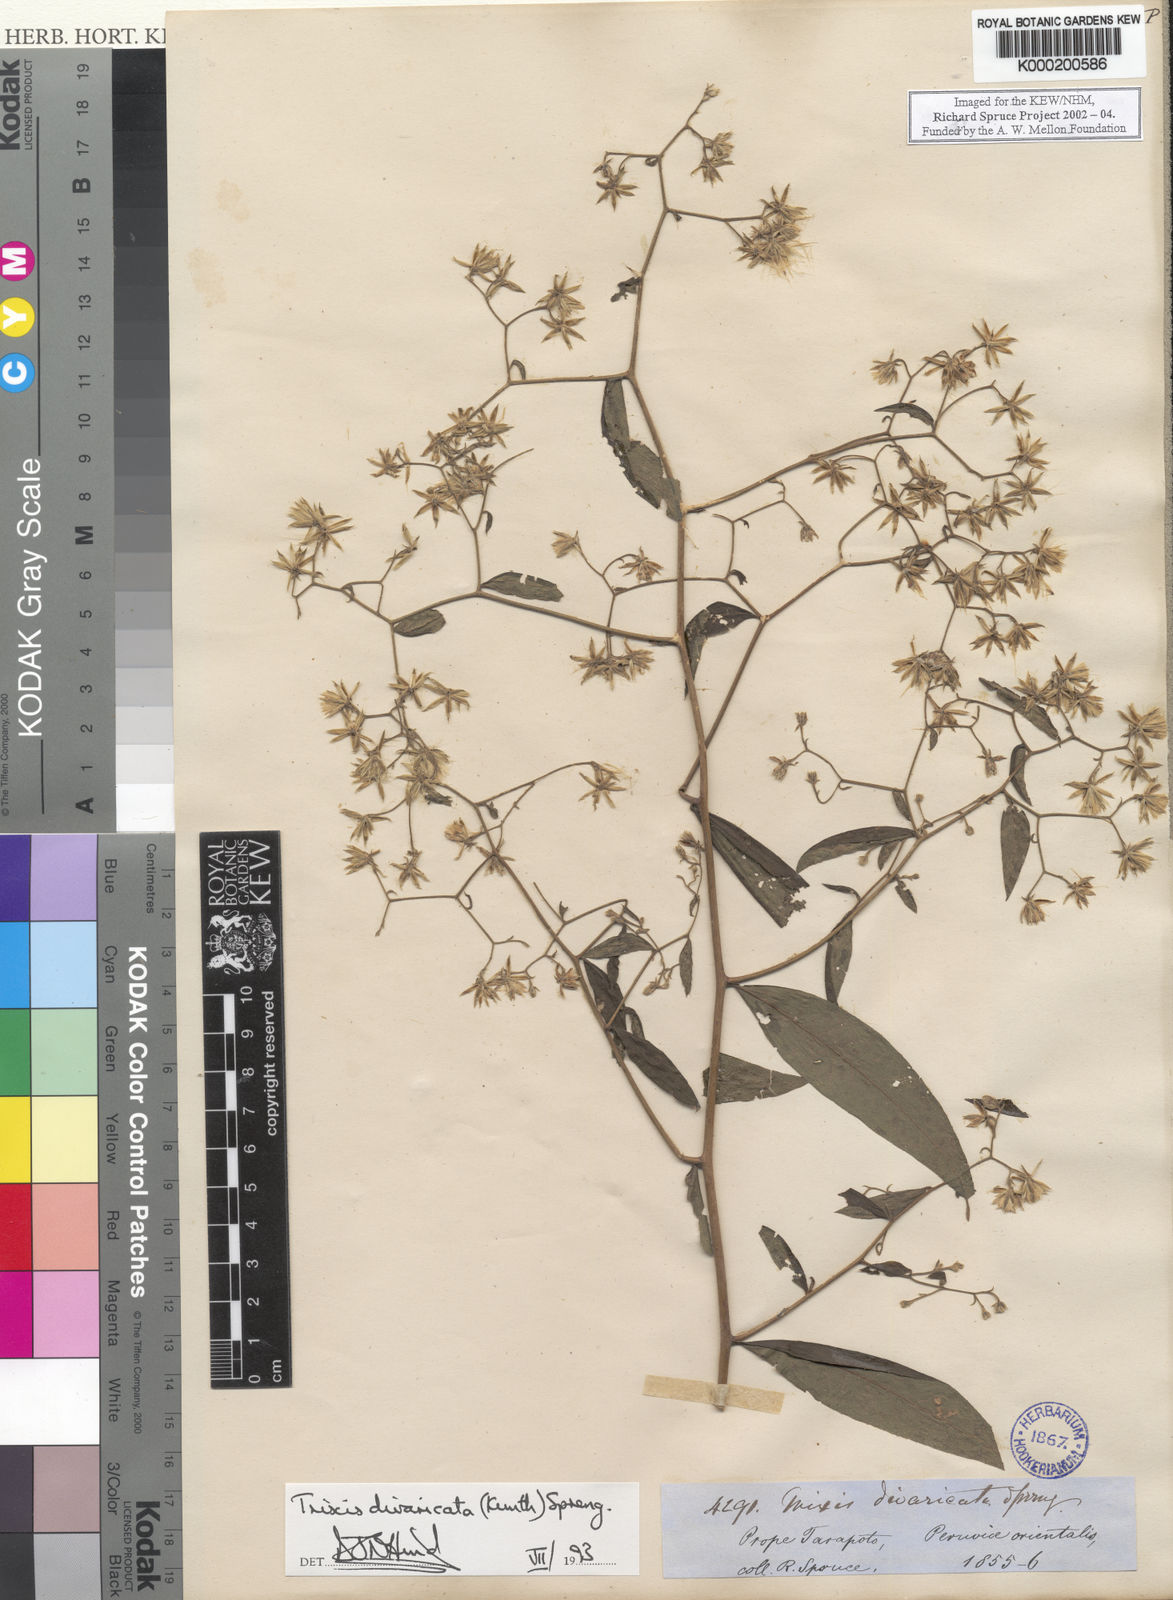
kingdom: Plantae
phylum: Tracheophyta
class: Magnoliopsida
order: Asterales
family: Asteraceae
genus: Trixis
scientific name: Trixis divaricata
